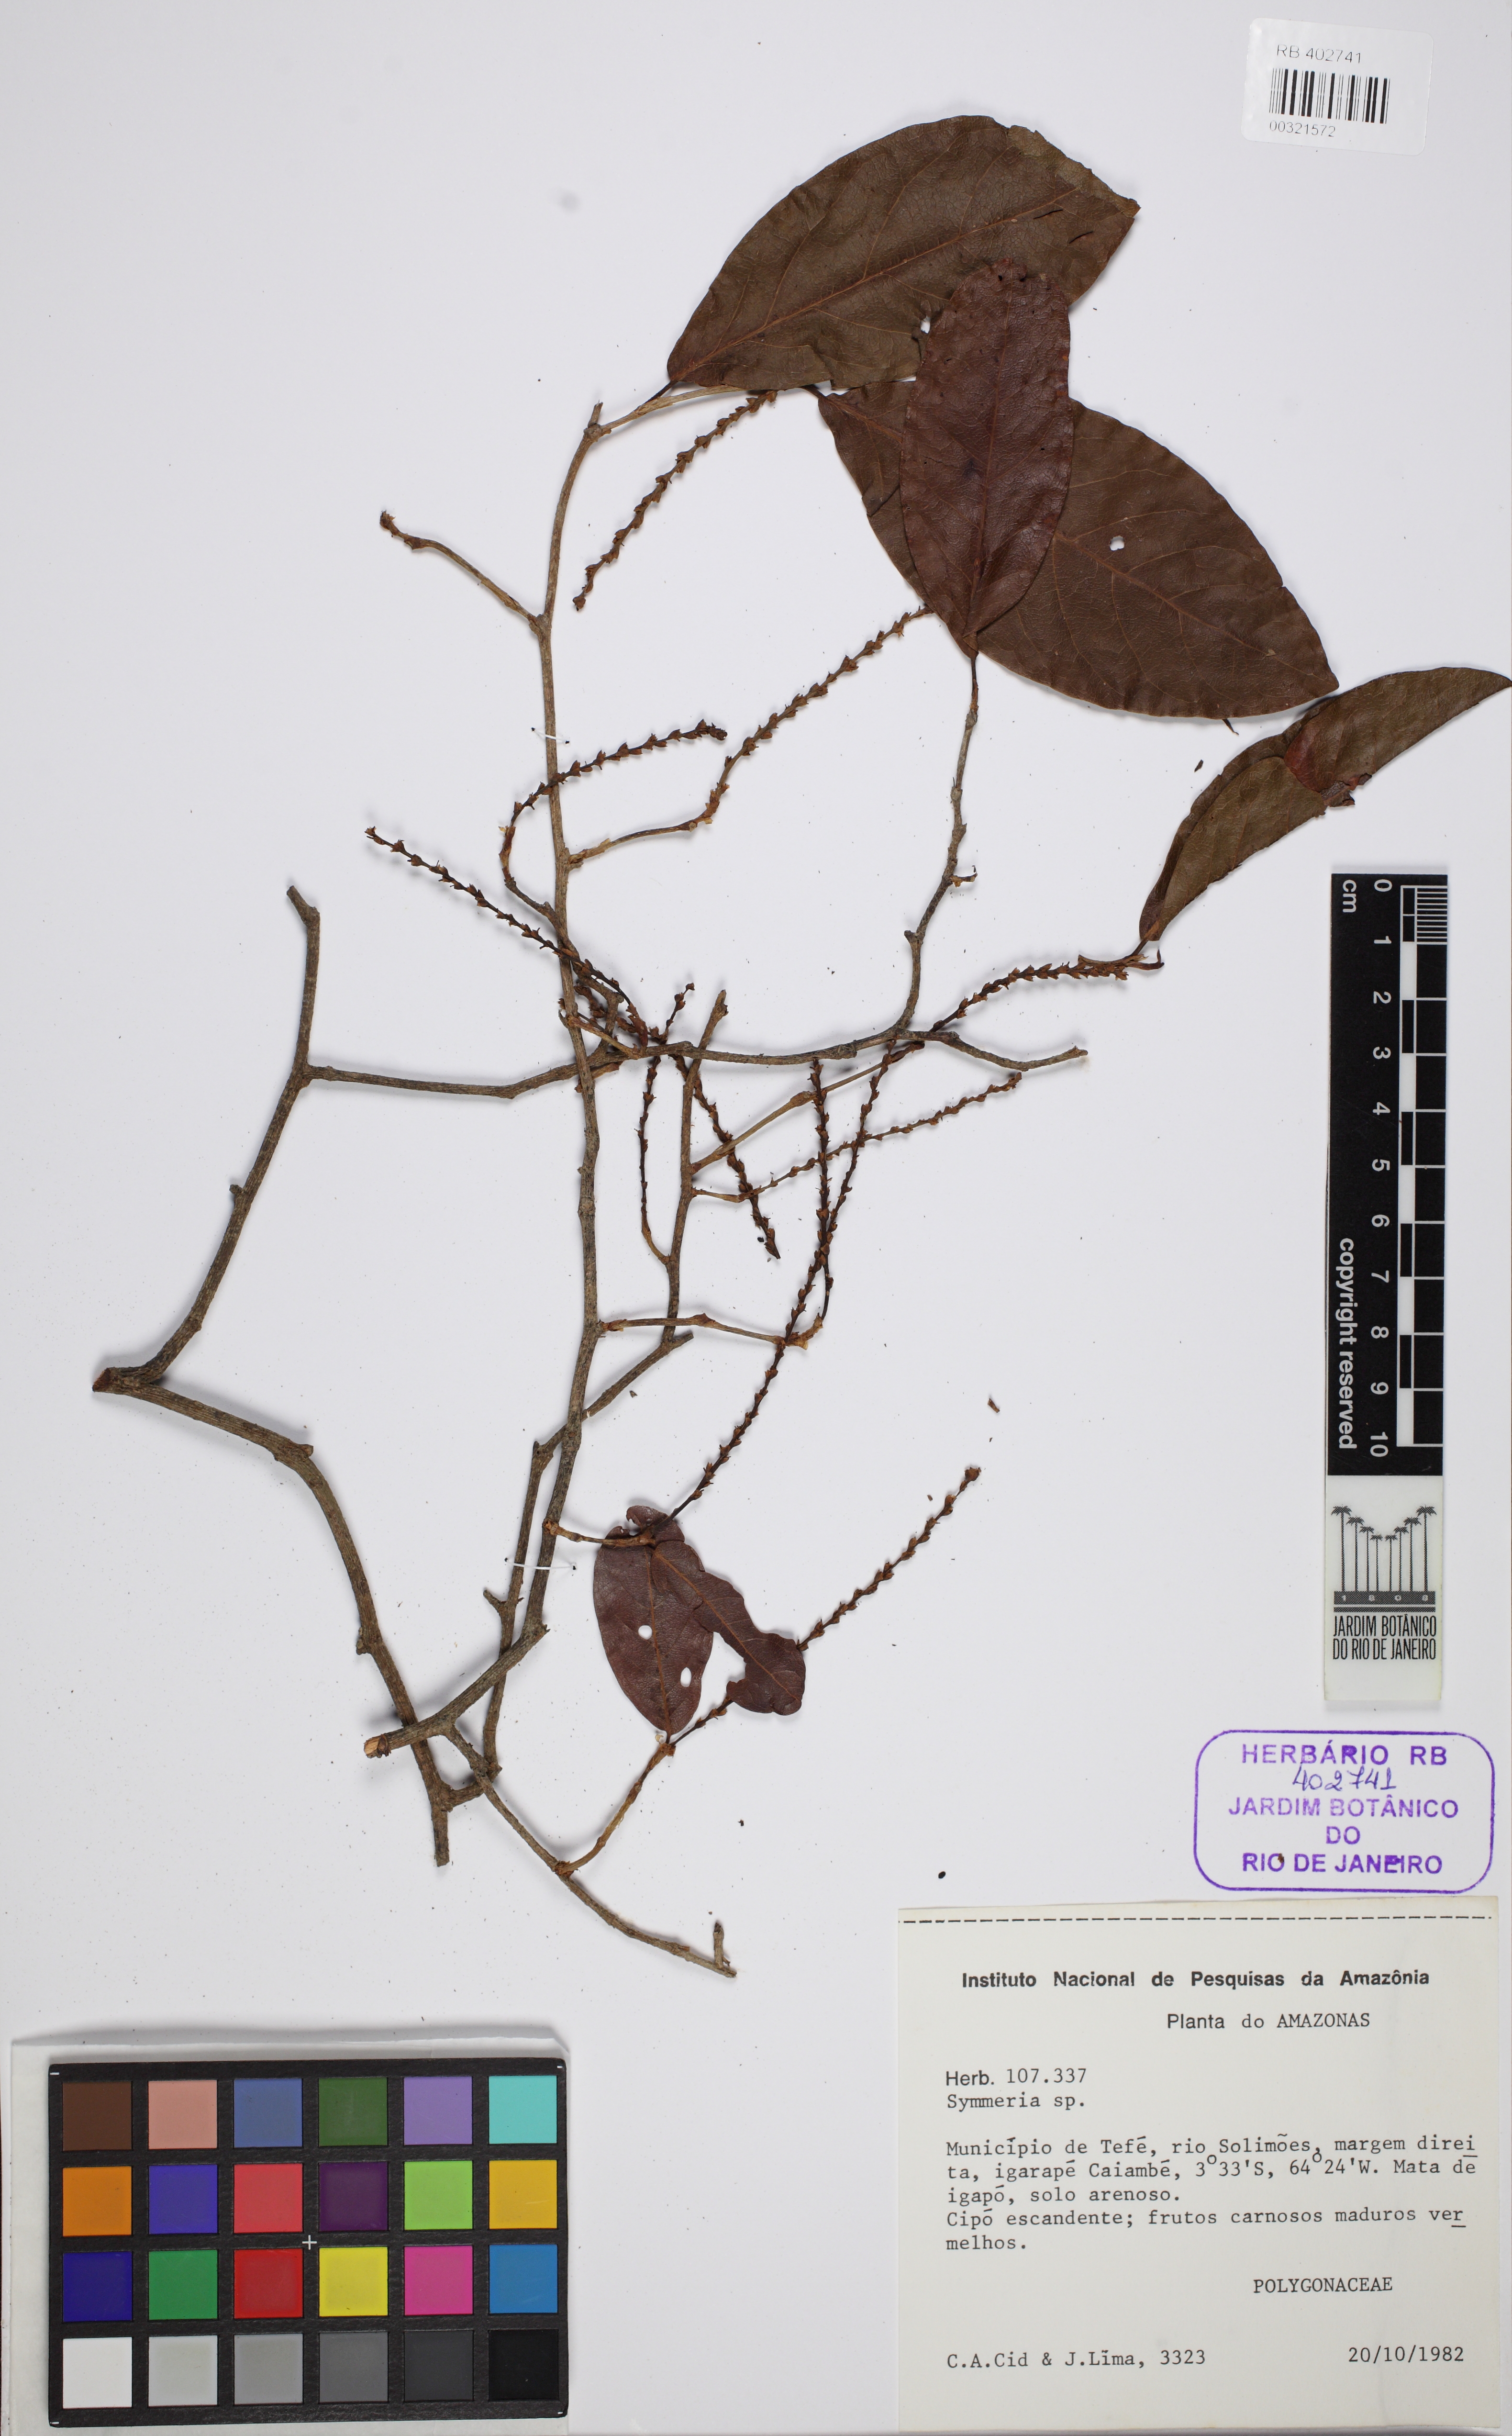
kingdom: Plantae
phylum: Tracheophyta
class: Magnoliopsida
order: Caryophyllales
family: Polygonaceae
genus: Symmeria
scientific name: Symmeria
